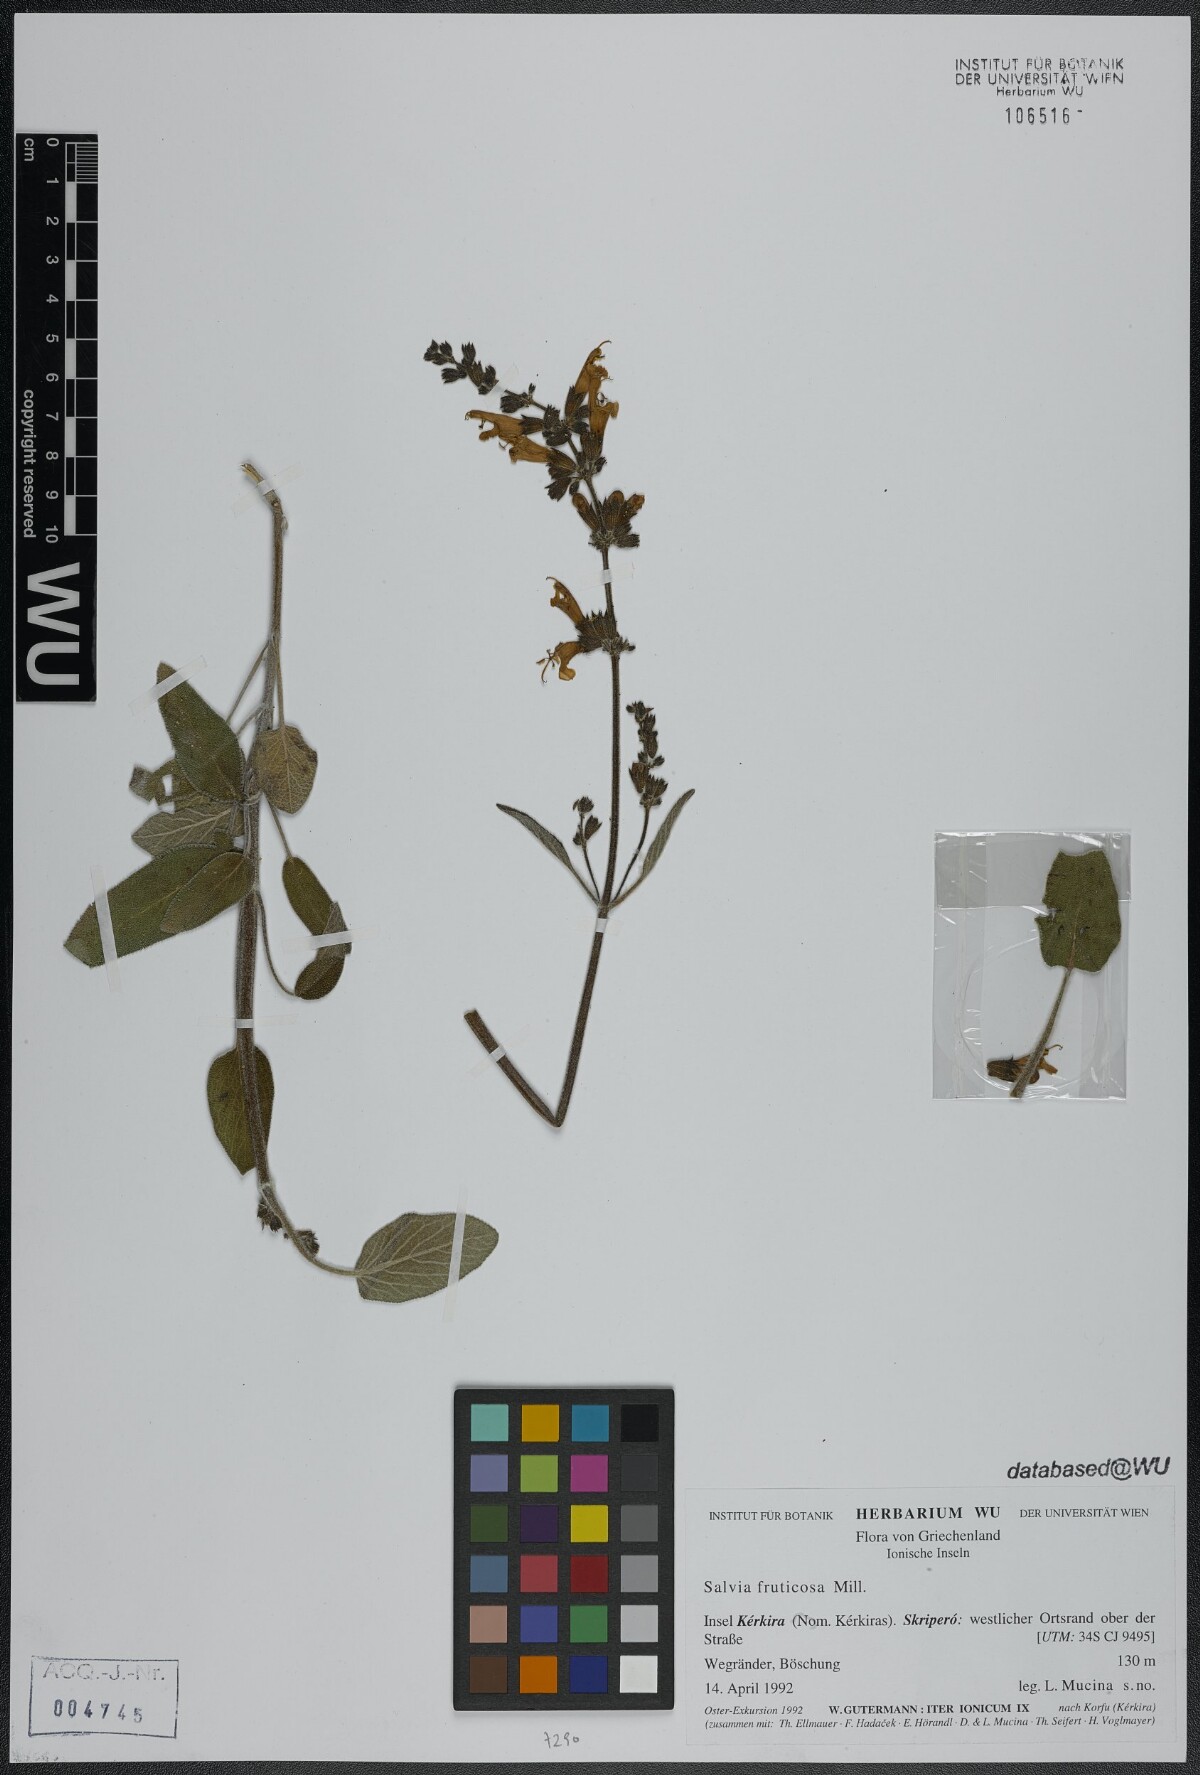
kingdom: Plantae
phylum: Tracheophyta
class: Magnoliopsida
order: Lamiales
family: Lamiaceae
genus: Salvia
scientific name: Salvia fruticosa
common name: Greek sage
